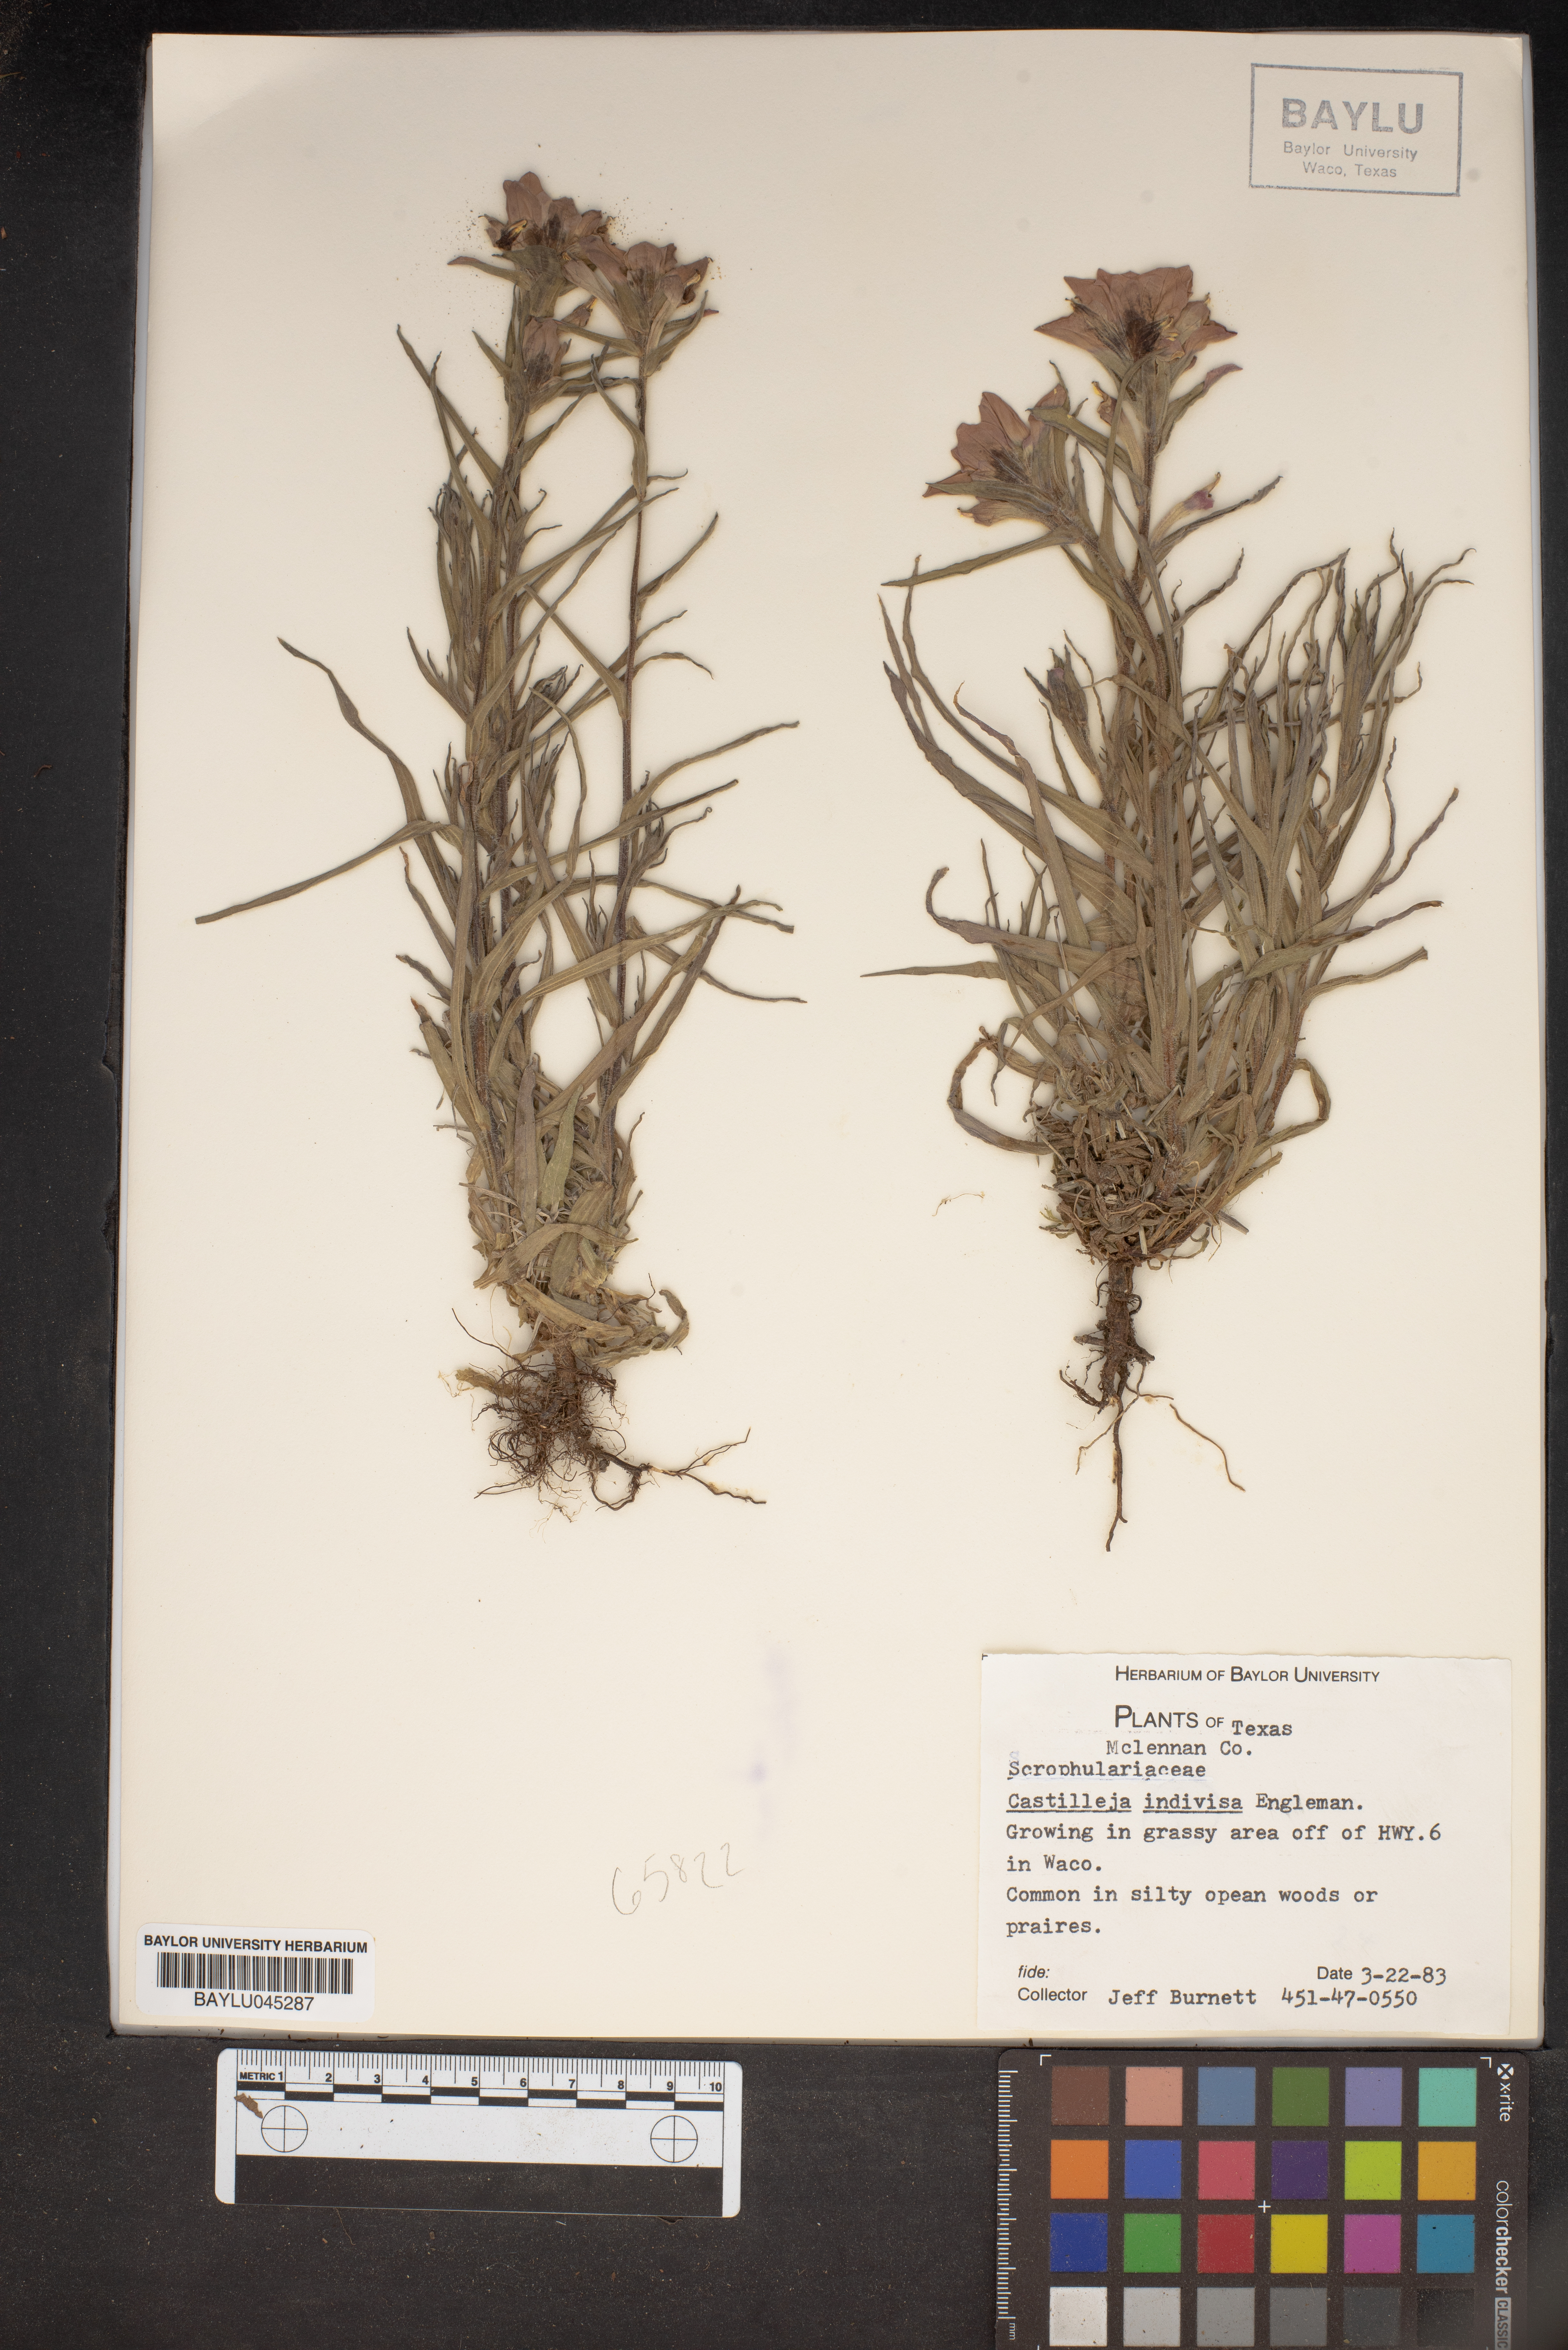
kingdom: Plantae
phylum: Tracheophyta
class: Magnoliopsida
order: Lamiales
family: Orobanchaceae
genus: Castilleja
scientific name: Castilleja indivisa
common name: Texas paintbrush
